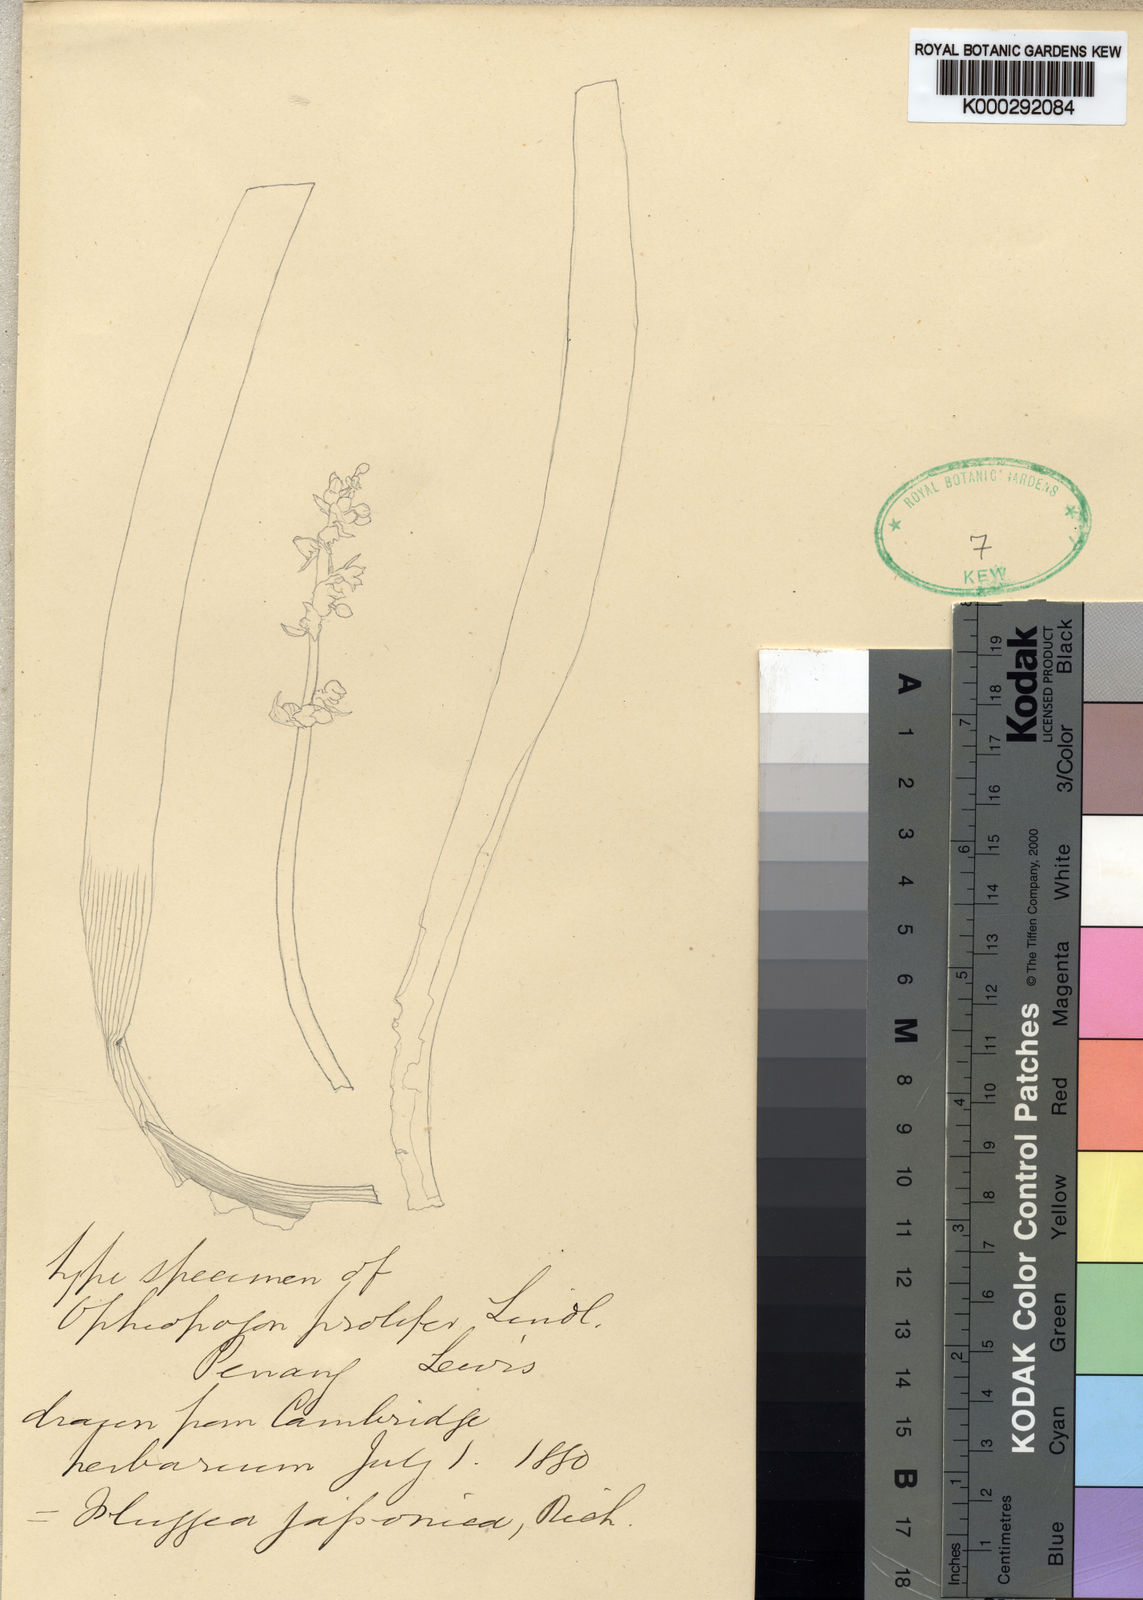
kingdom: Plantae
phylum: Tracheophyta
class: Liliopsida
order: Asparagales
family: Asparagaceae
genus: Ophiopogon
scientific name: Ophiopogon caulescens
